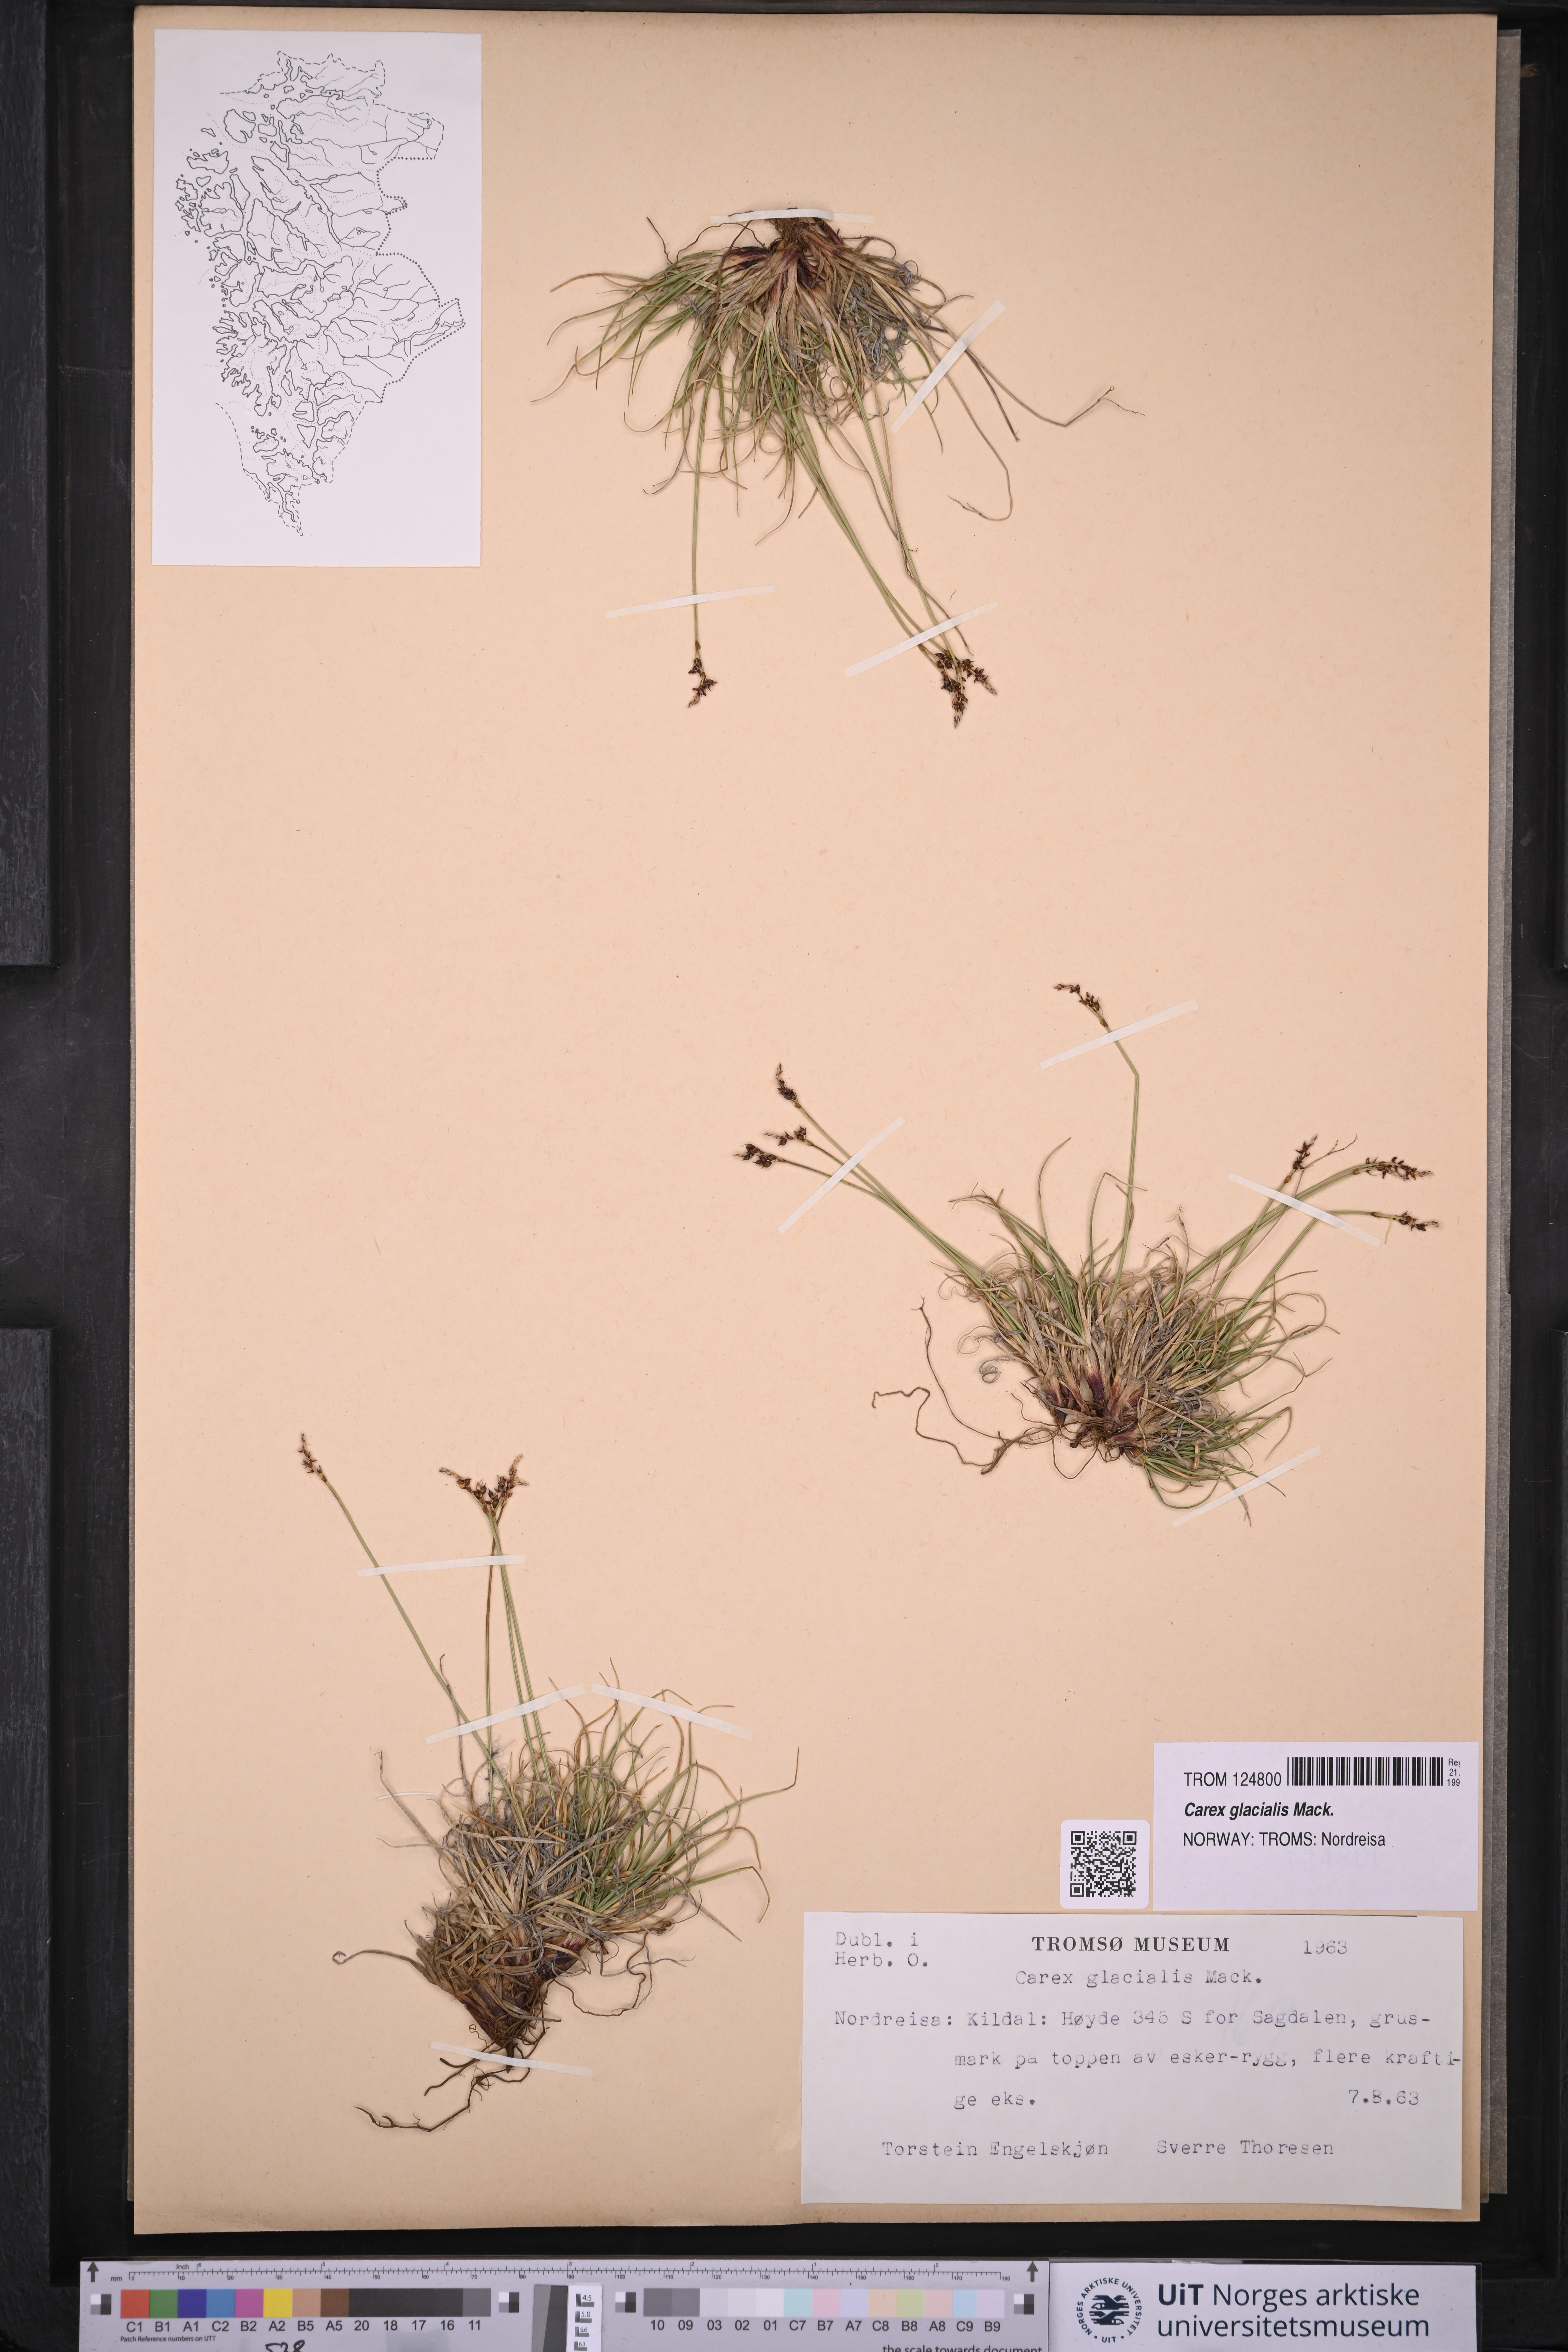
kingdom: Plantae
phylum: Tracheophyta
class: Liliopsida
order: Poales
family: Cyperaceae
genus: Carex
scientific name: Carex glacialis
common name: Newfoundland sedge
